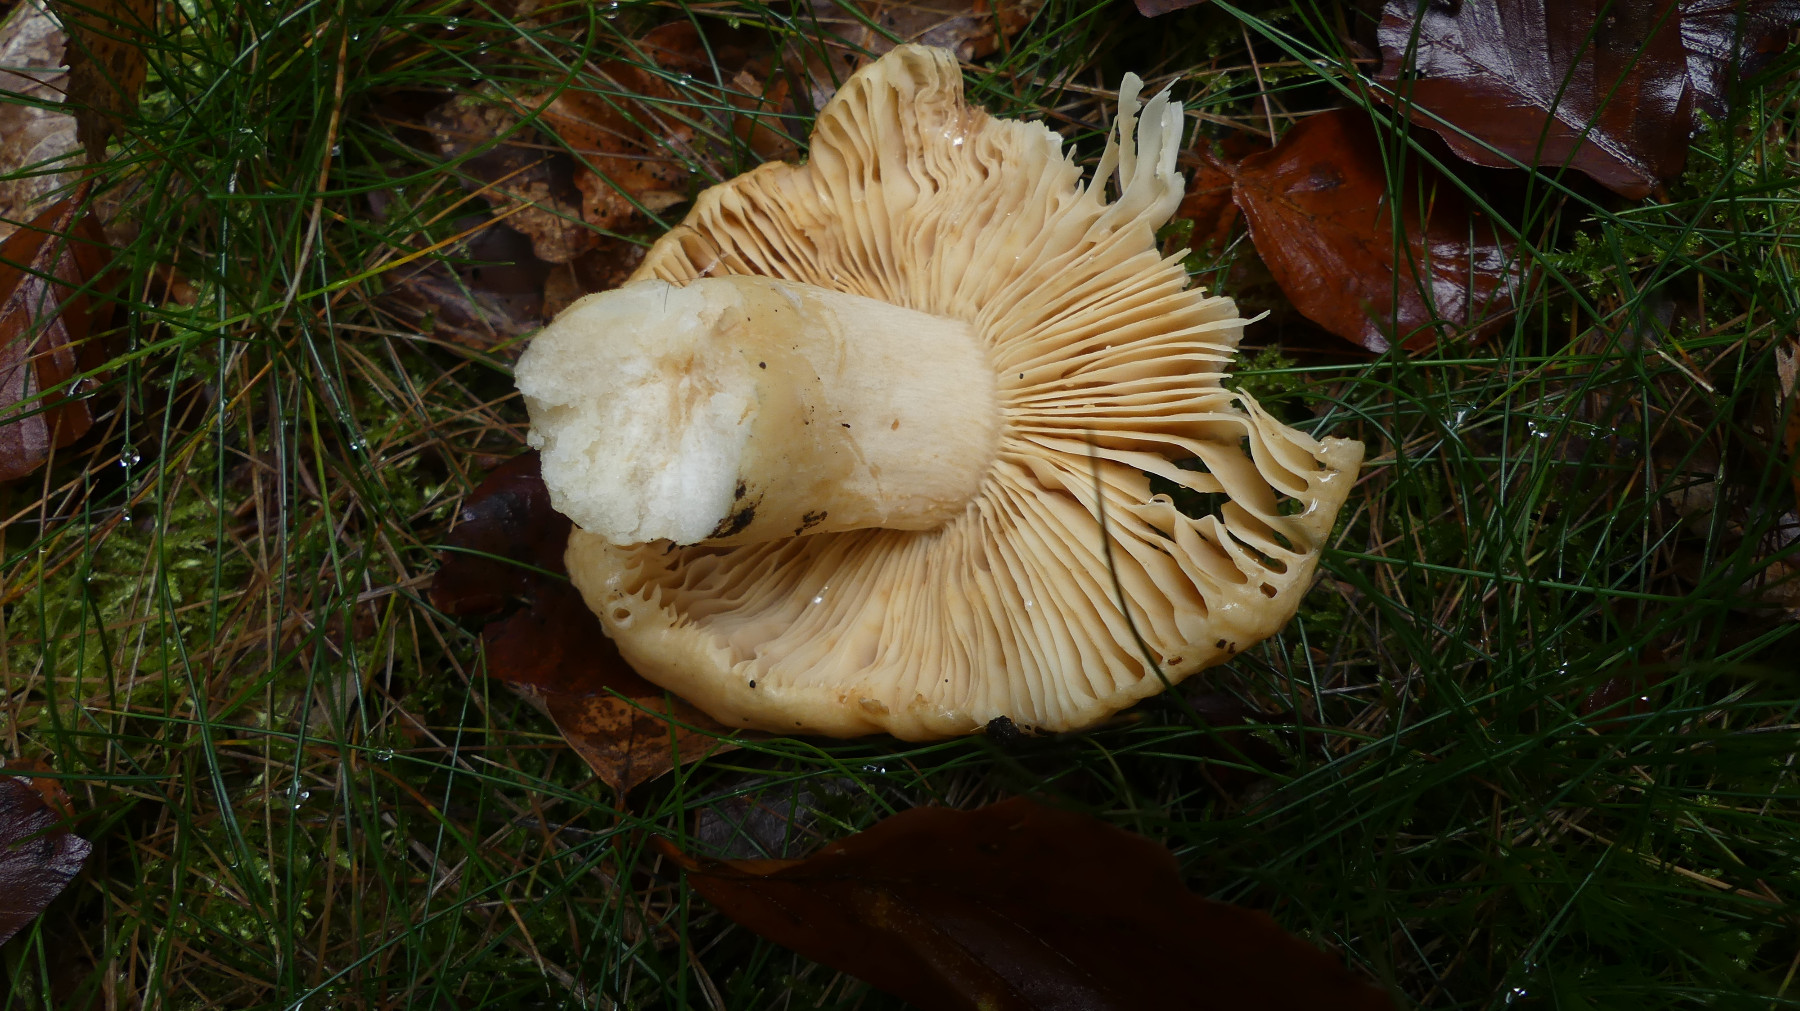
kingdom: Fungi
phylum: Basidiomycota
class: Agaricomycetes
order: Russulales
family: Russulaceae
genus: Russula
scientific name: Russula foetens
